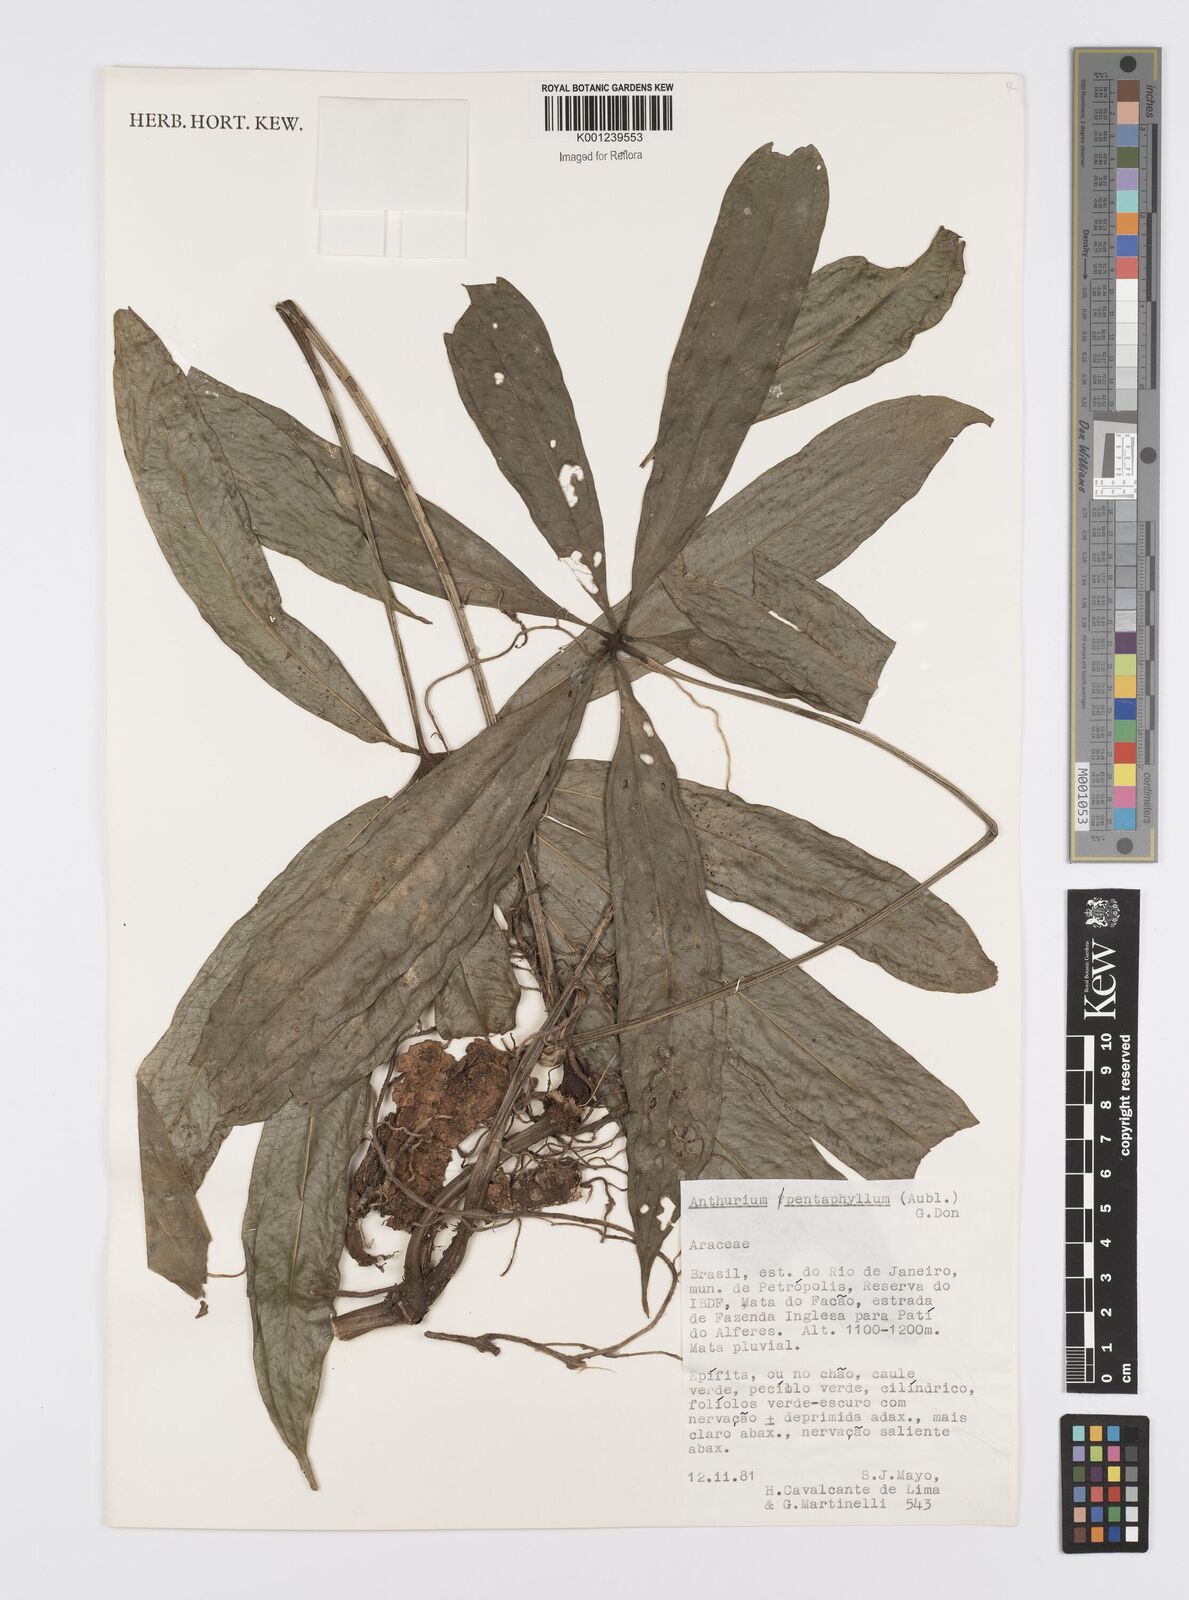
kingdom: Plantae
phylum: Tracheophyta
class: Liliopsida
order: Alismatales
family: Araceae
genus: Anthurium
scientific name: Anthurium pentaphyllum
